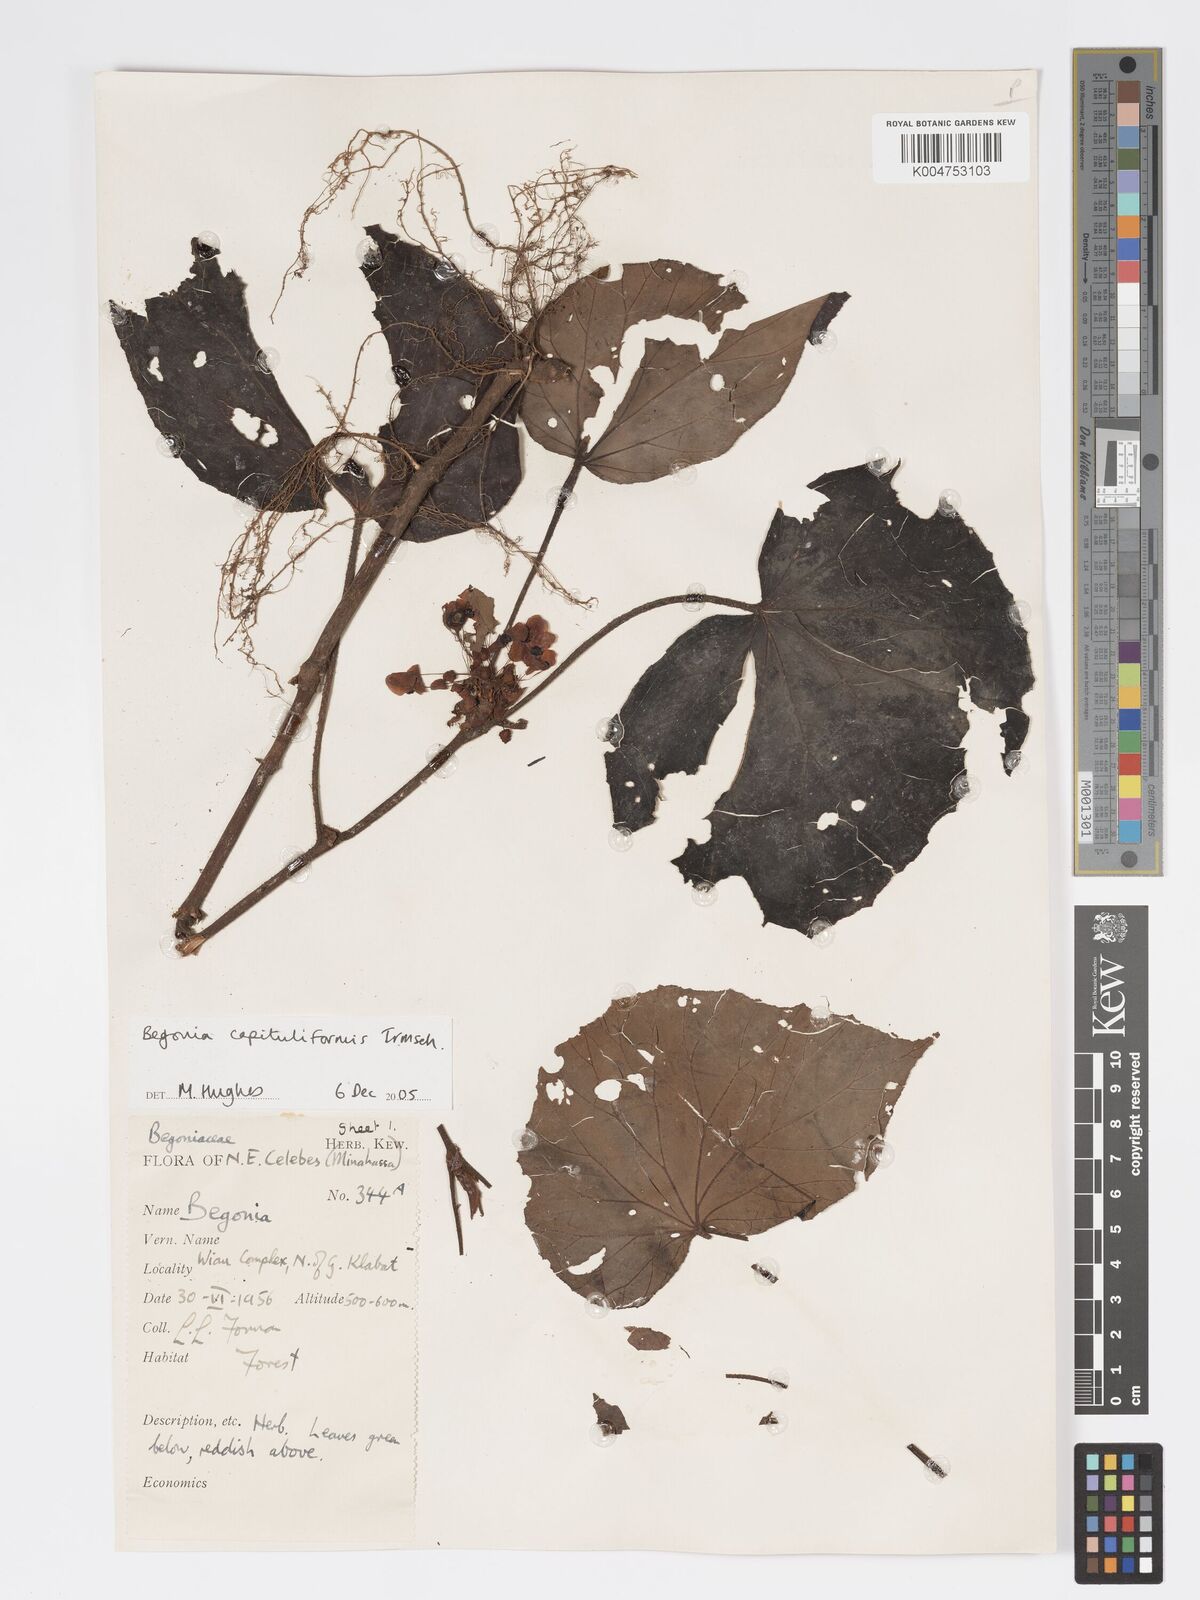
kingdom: Plantae
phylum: Tracheophyta
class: Magnoliopsida
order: Cucurbitales
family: Begoniaceae
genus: Begonia
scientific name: Begonia capituliformis
